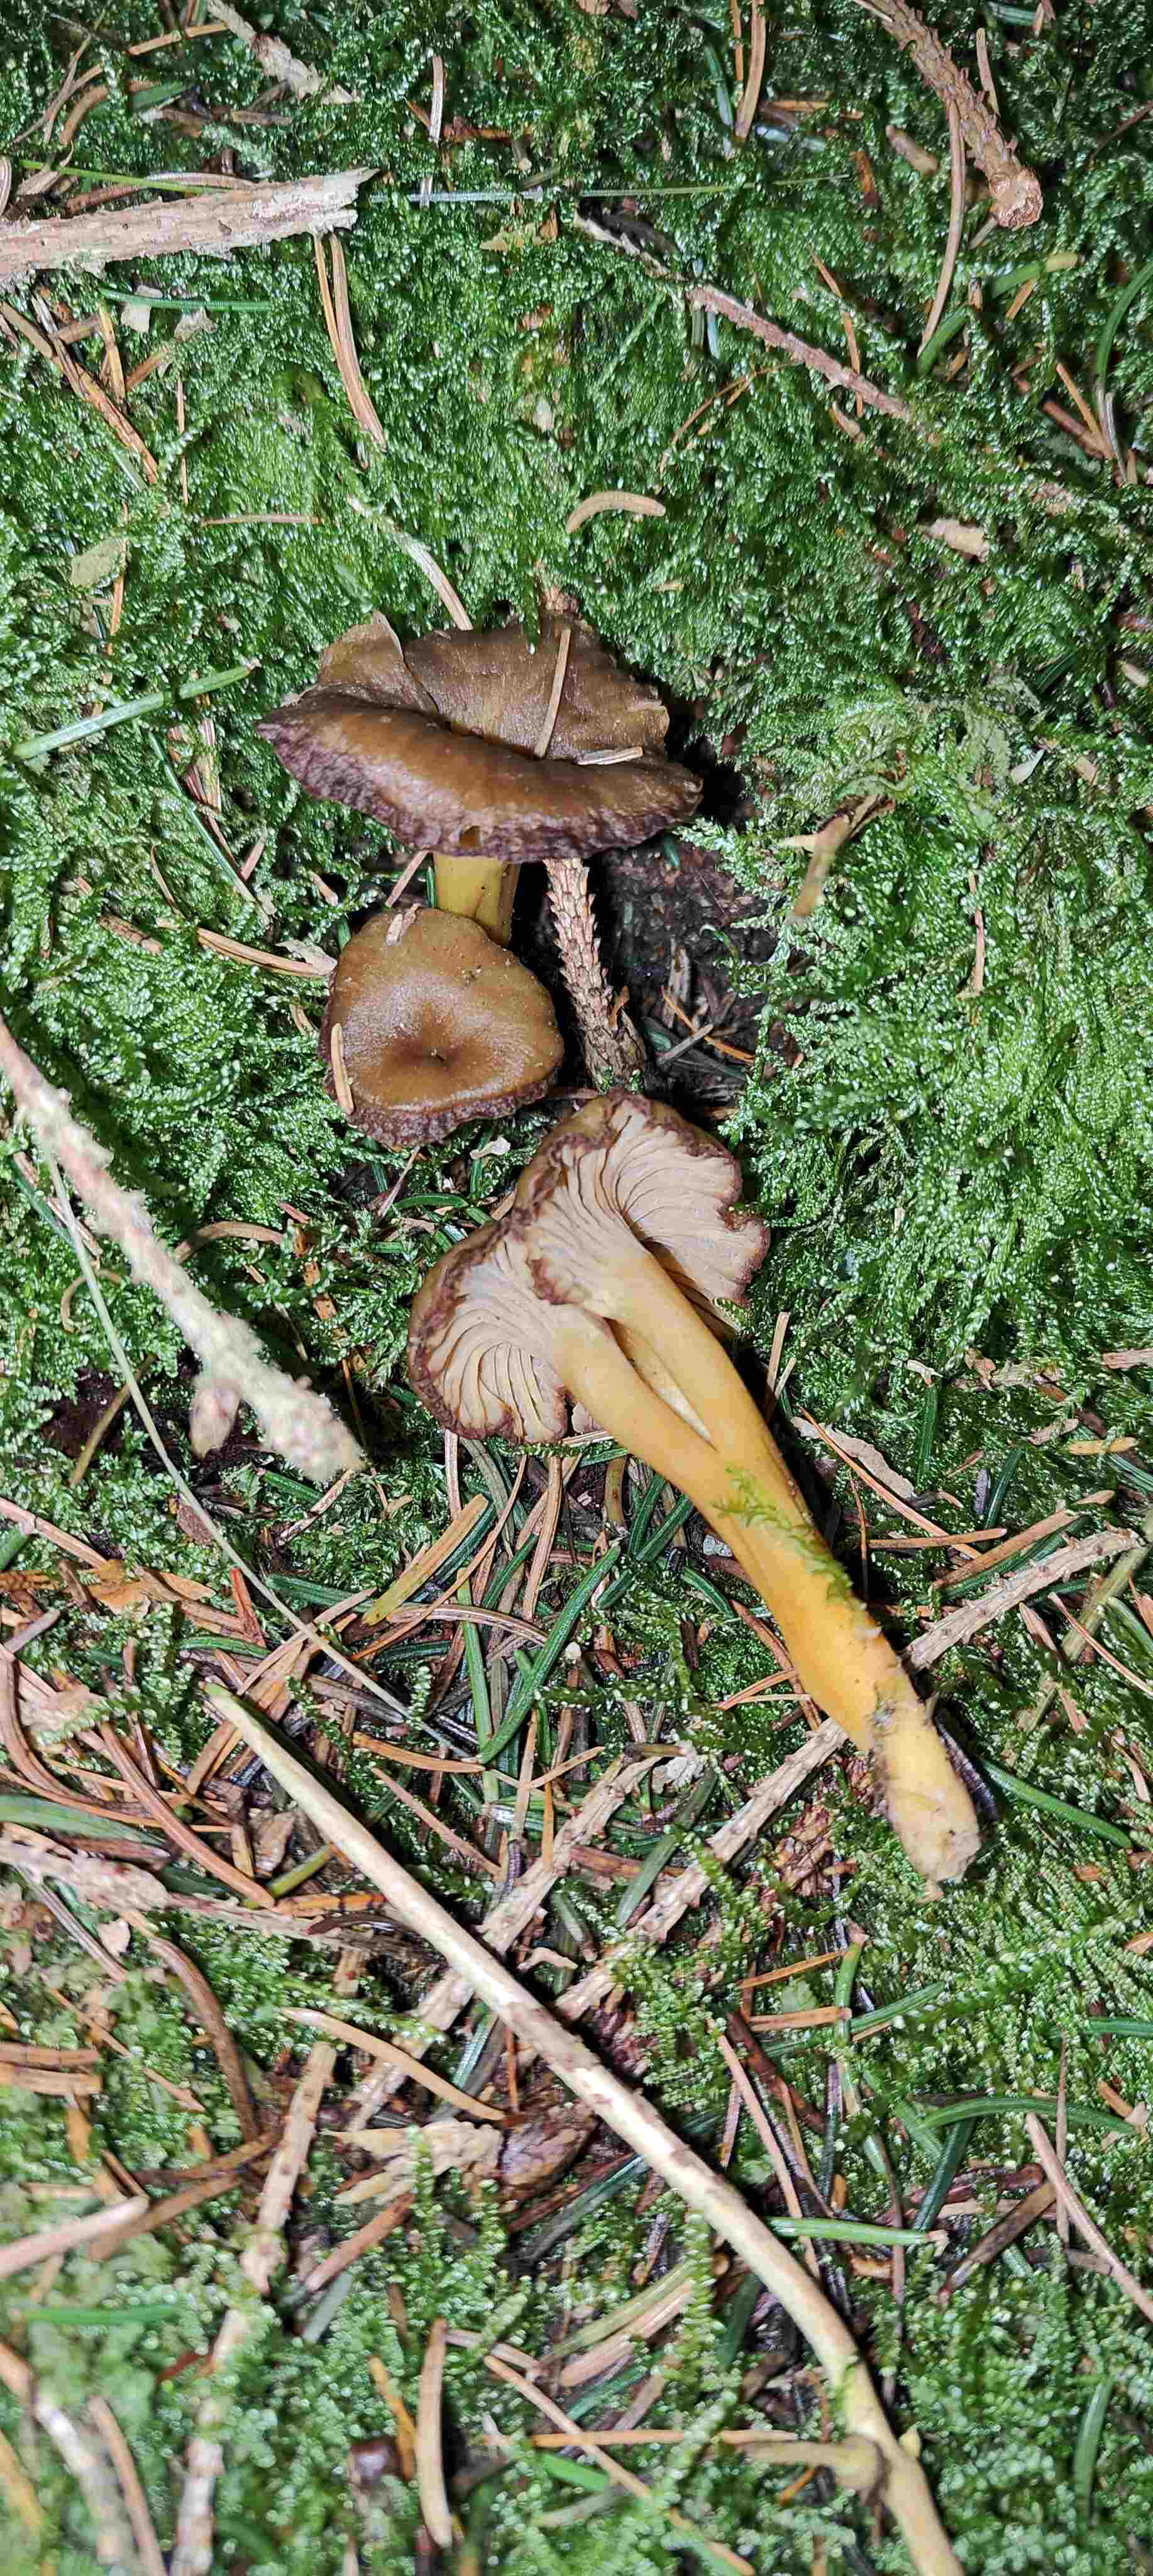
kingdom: Fungi
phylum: Basidiomycota
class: Agaricomycetes
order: Cantharellales
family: Hydnaceae
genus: Craterellus
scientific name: Craterellus tubaeformis
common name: tragt-kantarel
